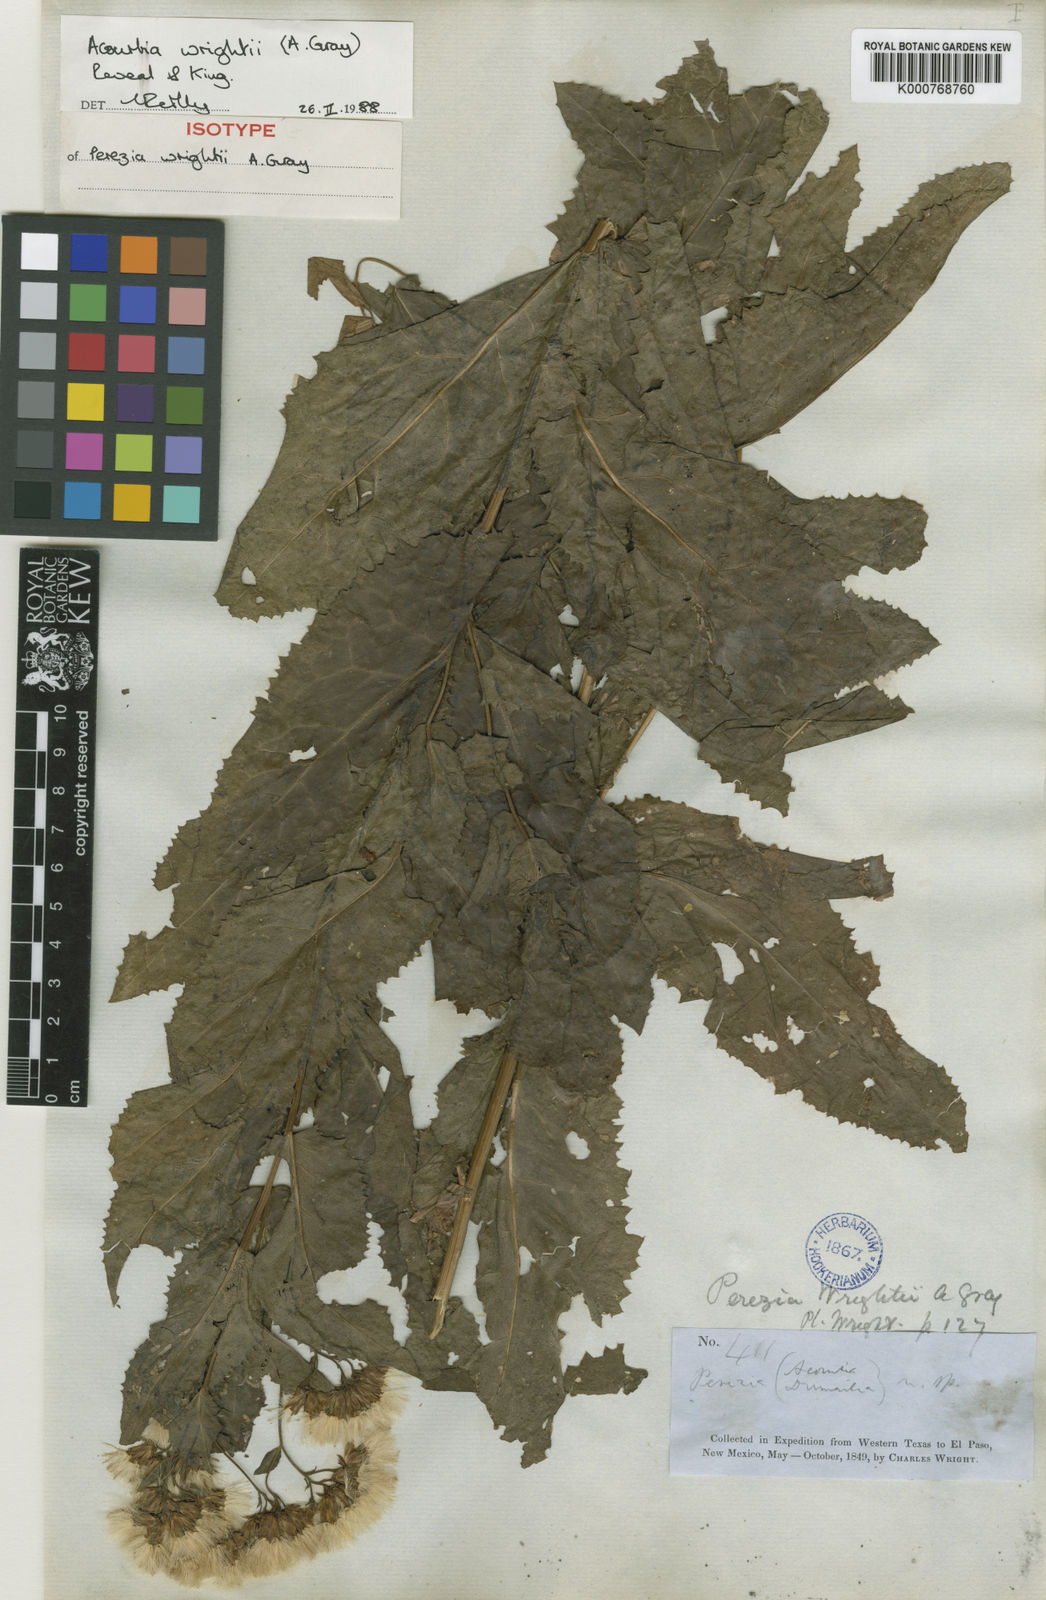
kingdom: Plantae
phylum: Tracheophyta
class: Magnoliopsida
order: Asterales
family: Asteraceae
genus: Acourtia
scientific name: Acourtia wrightii
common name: Brownfoot
